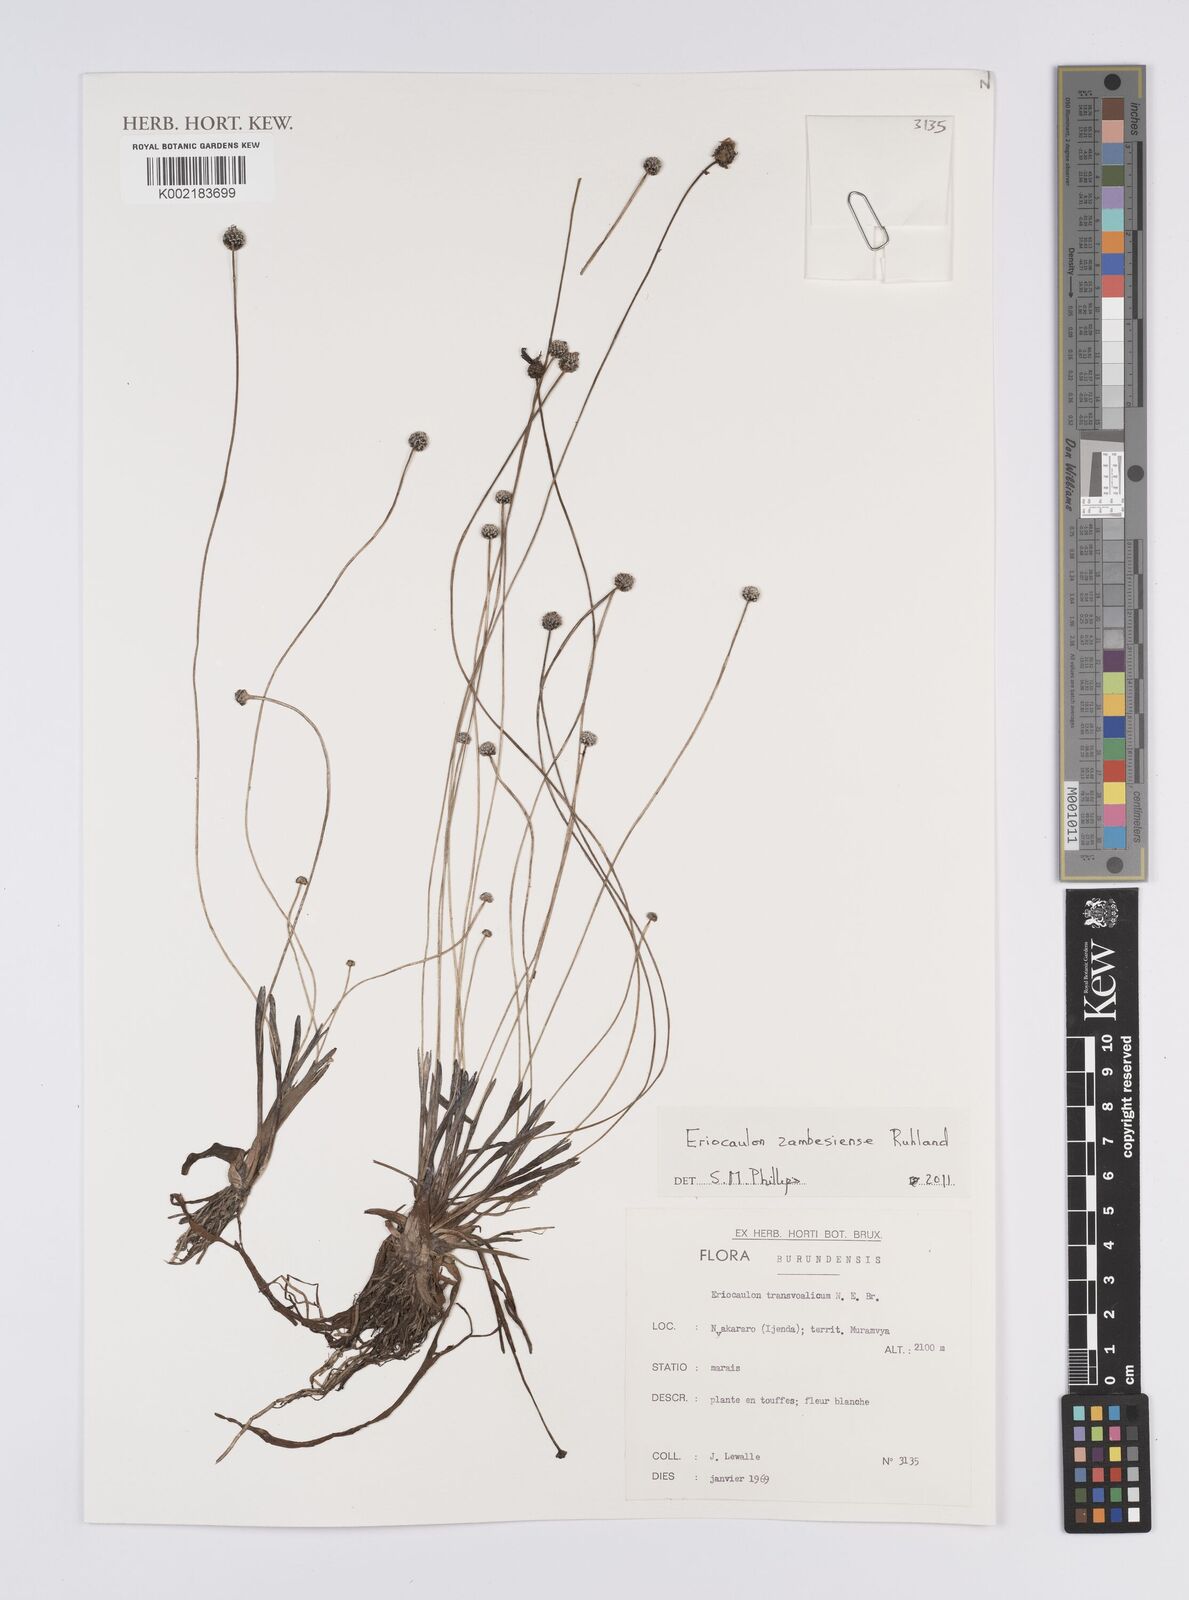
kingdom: Plantae
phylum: Tracheophyta
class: Liliopsida
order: Poales
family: Eriocaulaceae
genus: Eriocaulon
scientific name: Eriocaulon zambesiense
